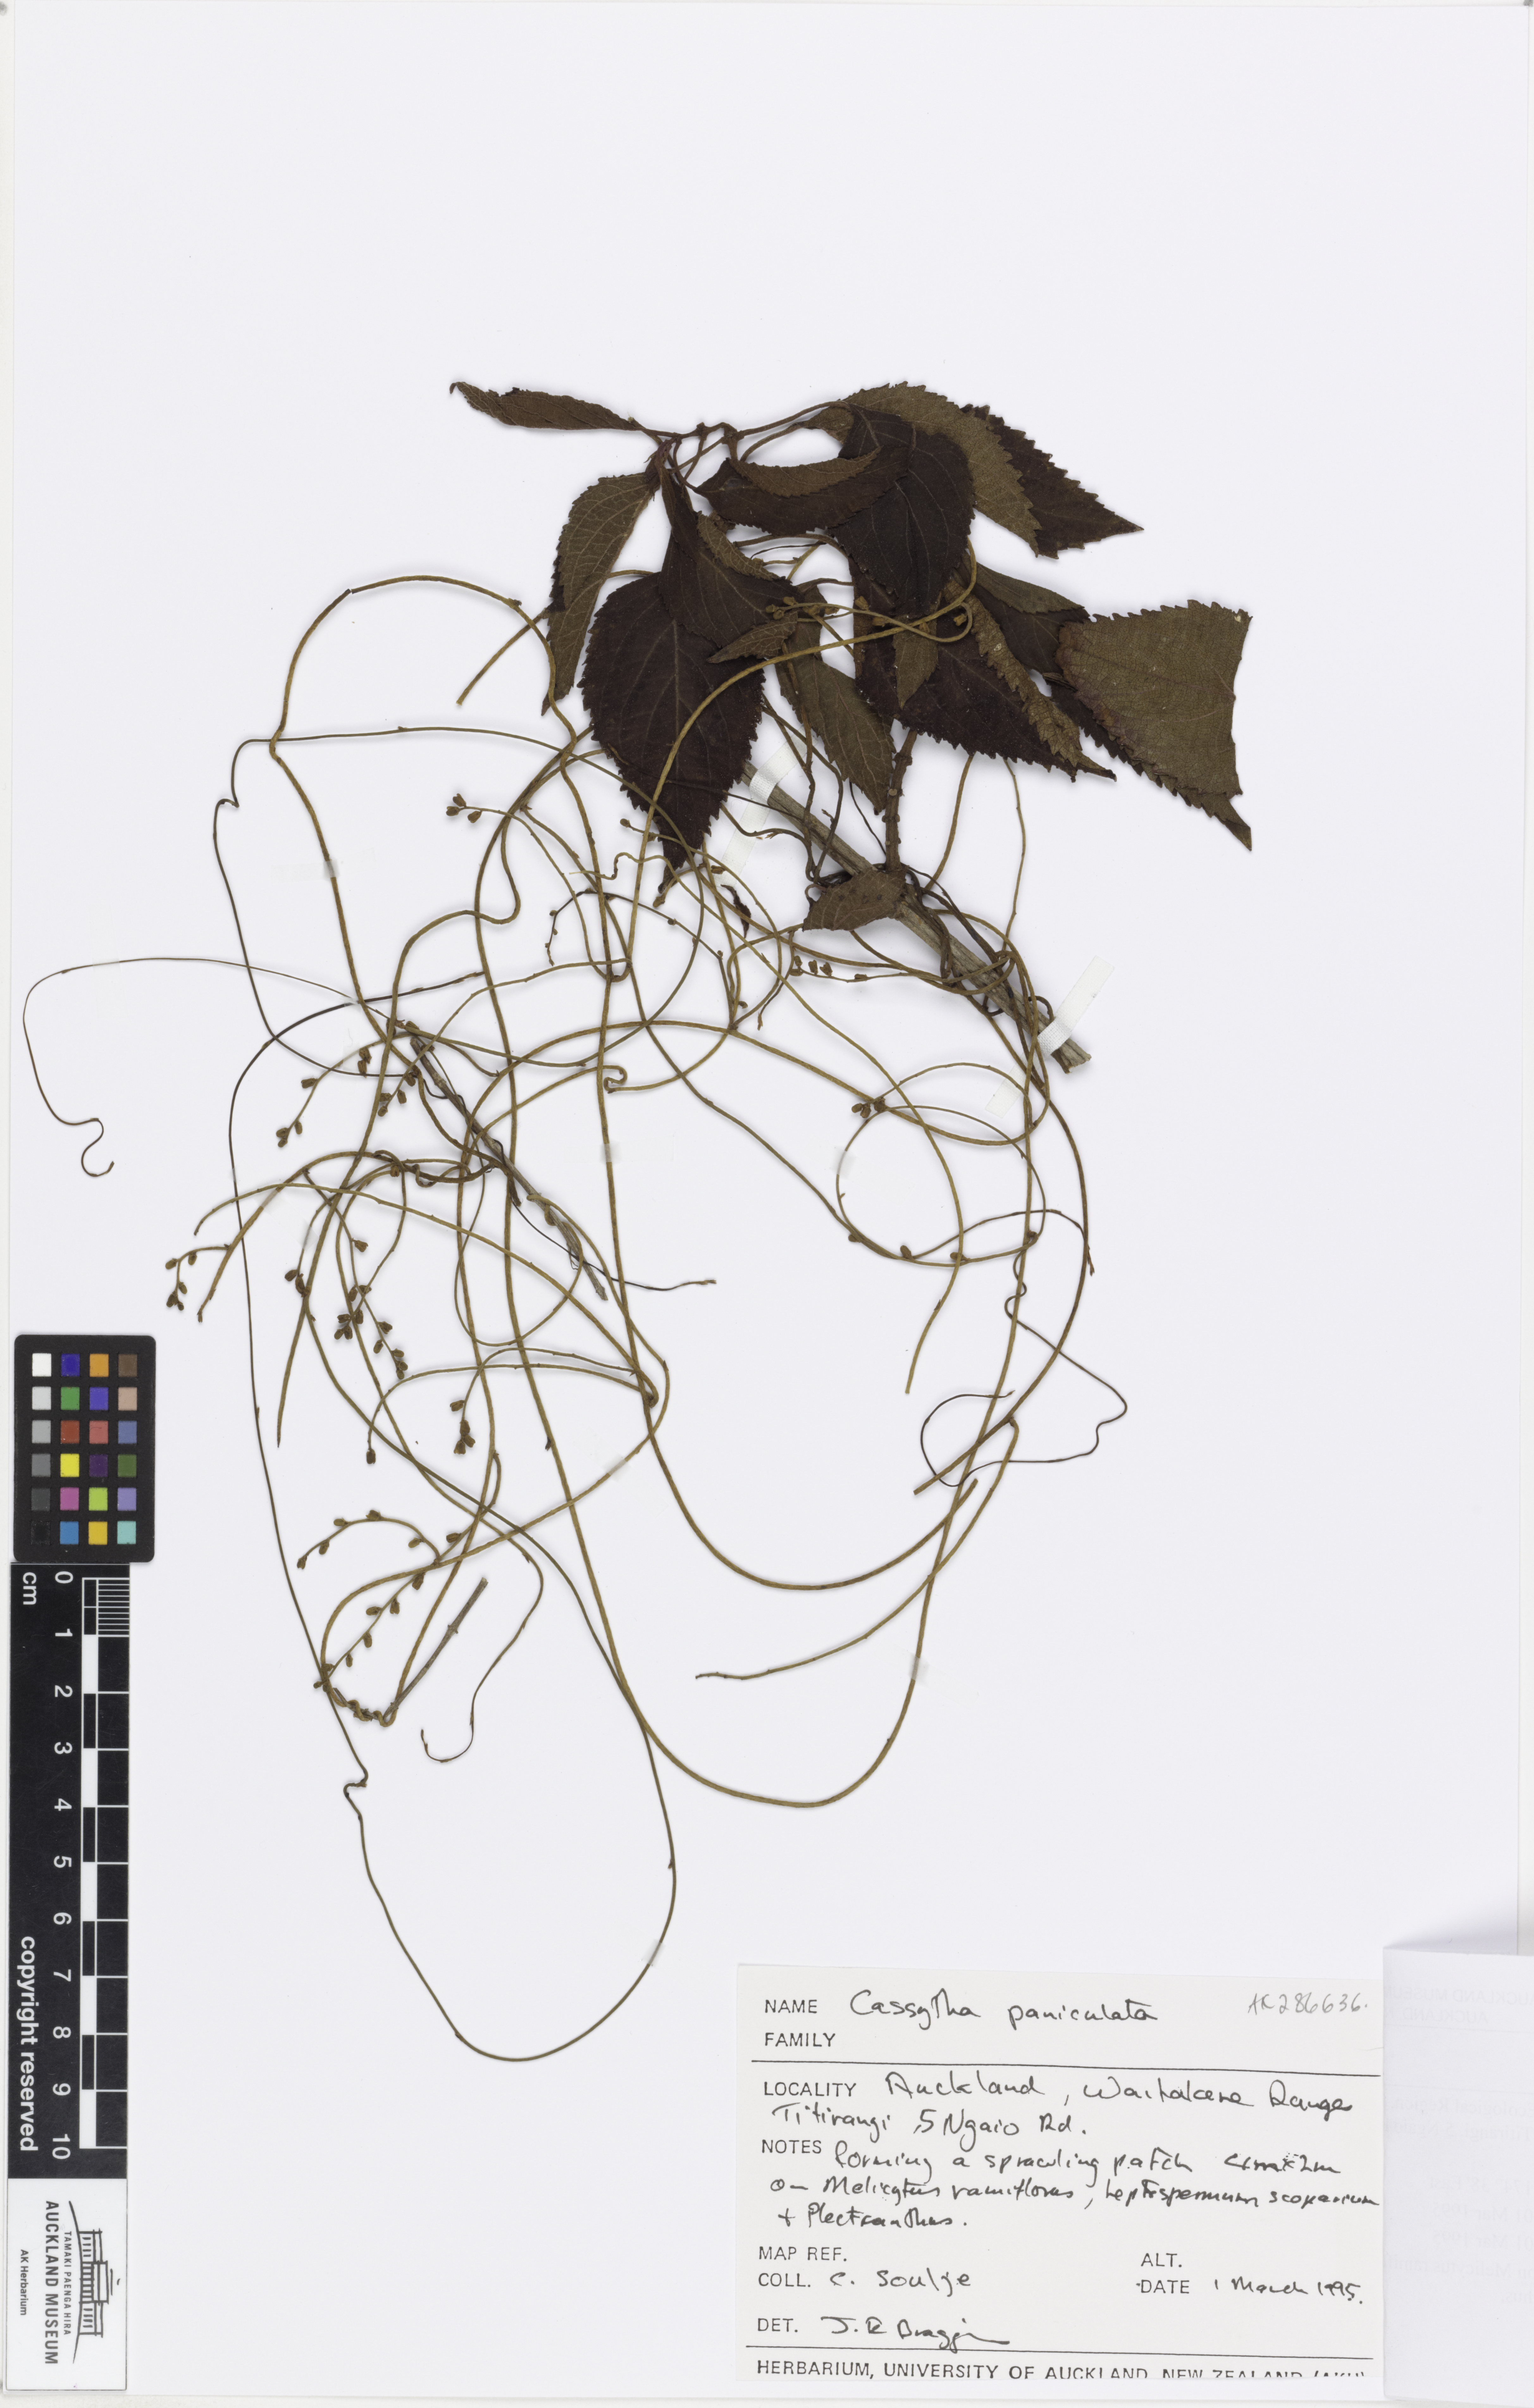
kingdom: Plantae
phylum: Tracheophyta
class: Magnoliopsida
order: Laurales
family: Lauraceae
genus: Cassytha
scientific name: Cassytha paniculata
